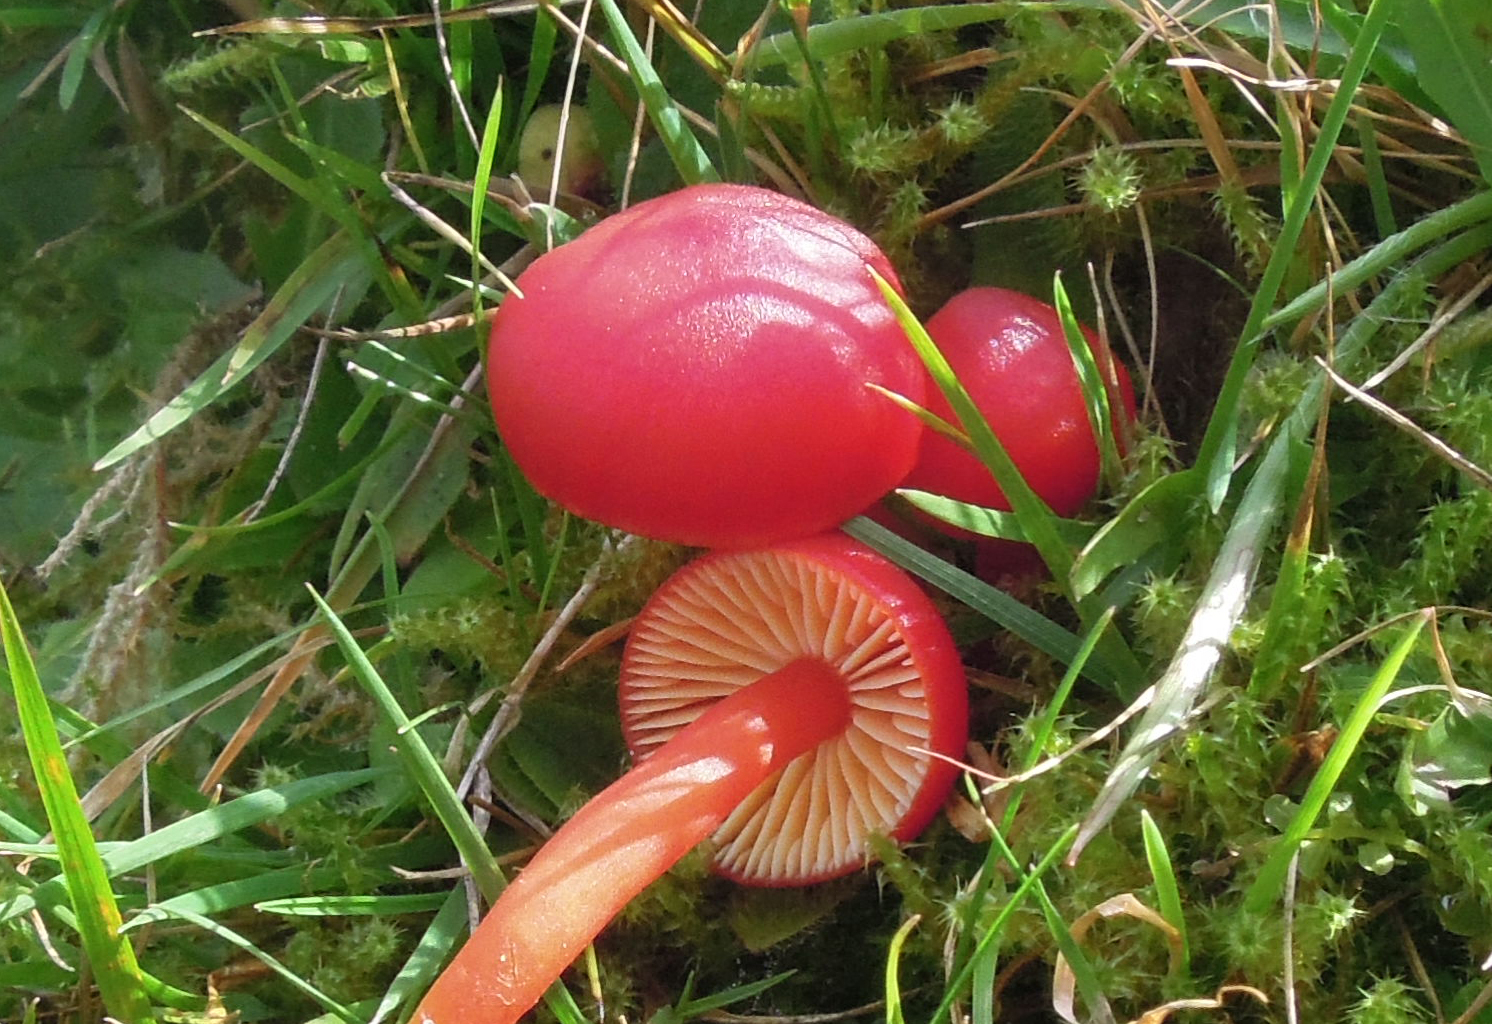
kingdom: Fungi
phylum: Basidiomycota
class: Agaricomycetes
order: Agaricales
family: Hygrophoraceae
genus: Hygrocybe
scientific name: Hygrocybe coccinea
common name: cinnober-vokshat
